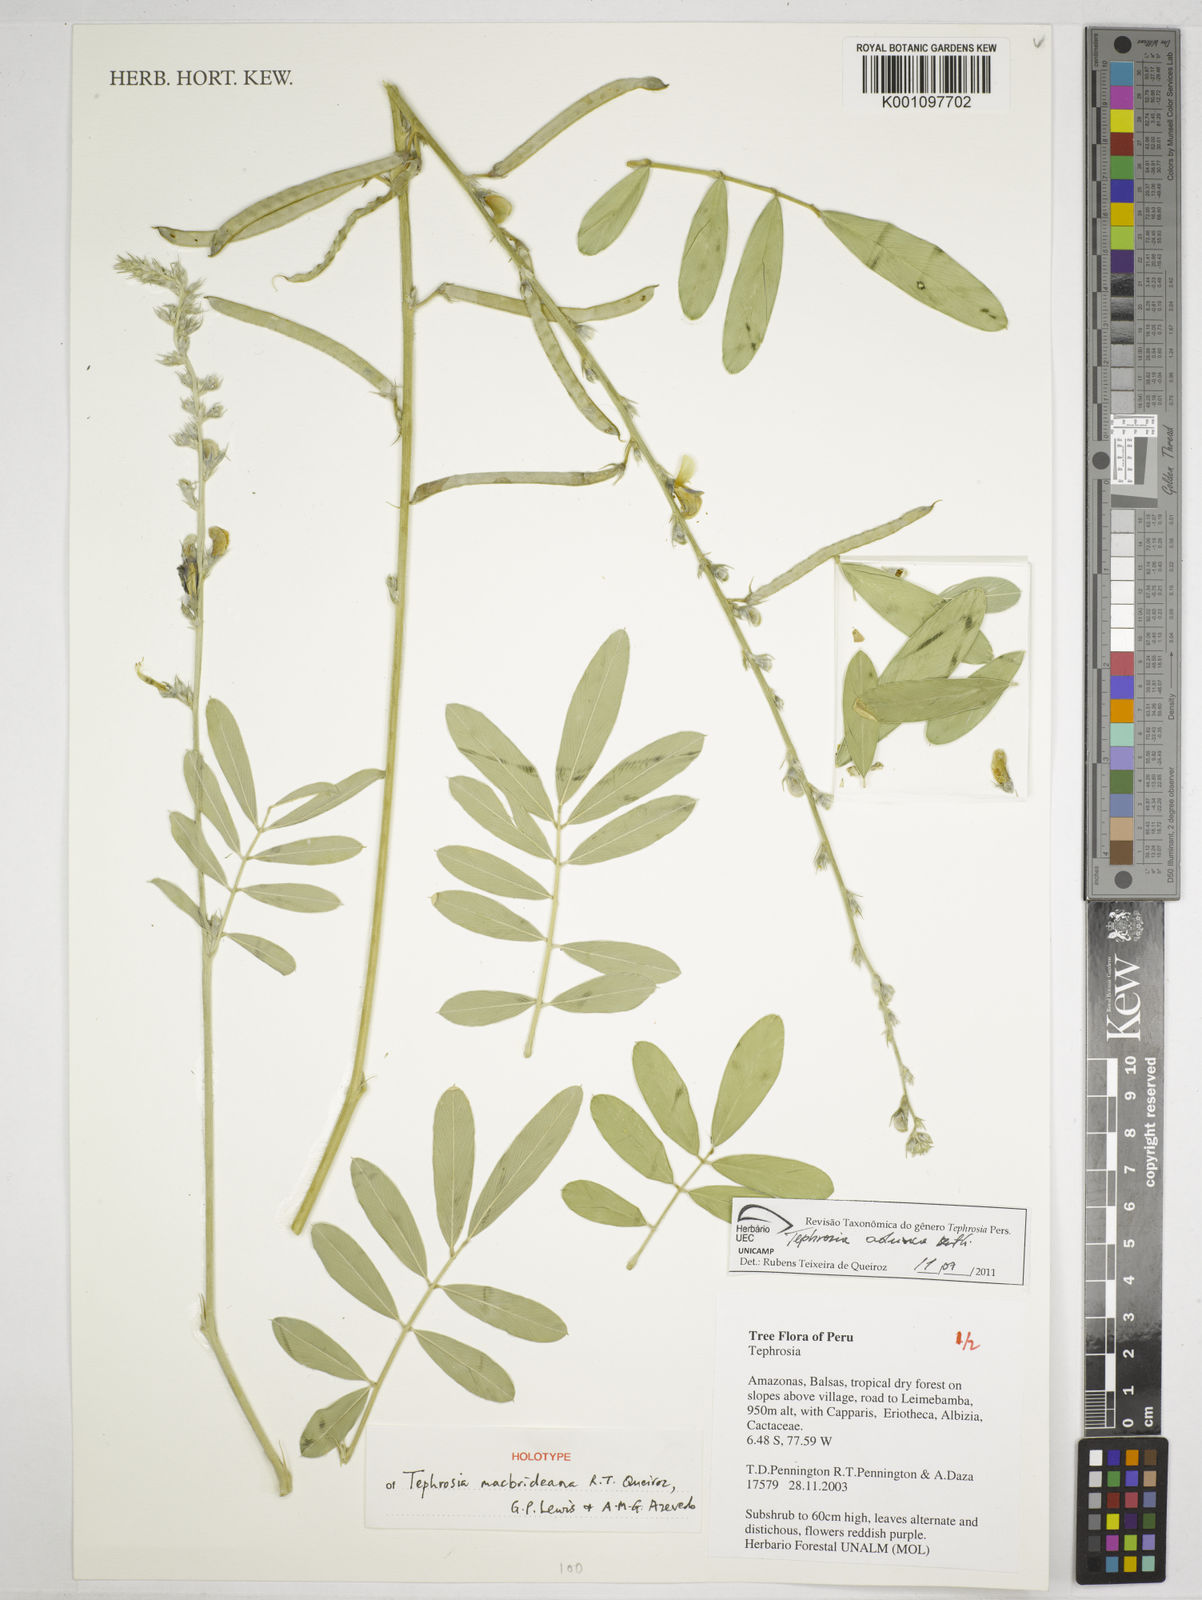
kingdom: Plantae
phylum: Tracheophyta
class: Magnoliopsida
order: Fabales
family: Fabaceae
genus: Tephrosia
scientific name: Tephrosia macbrideana
